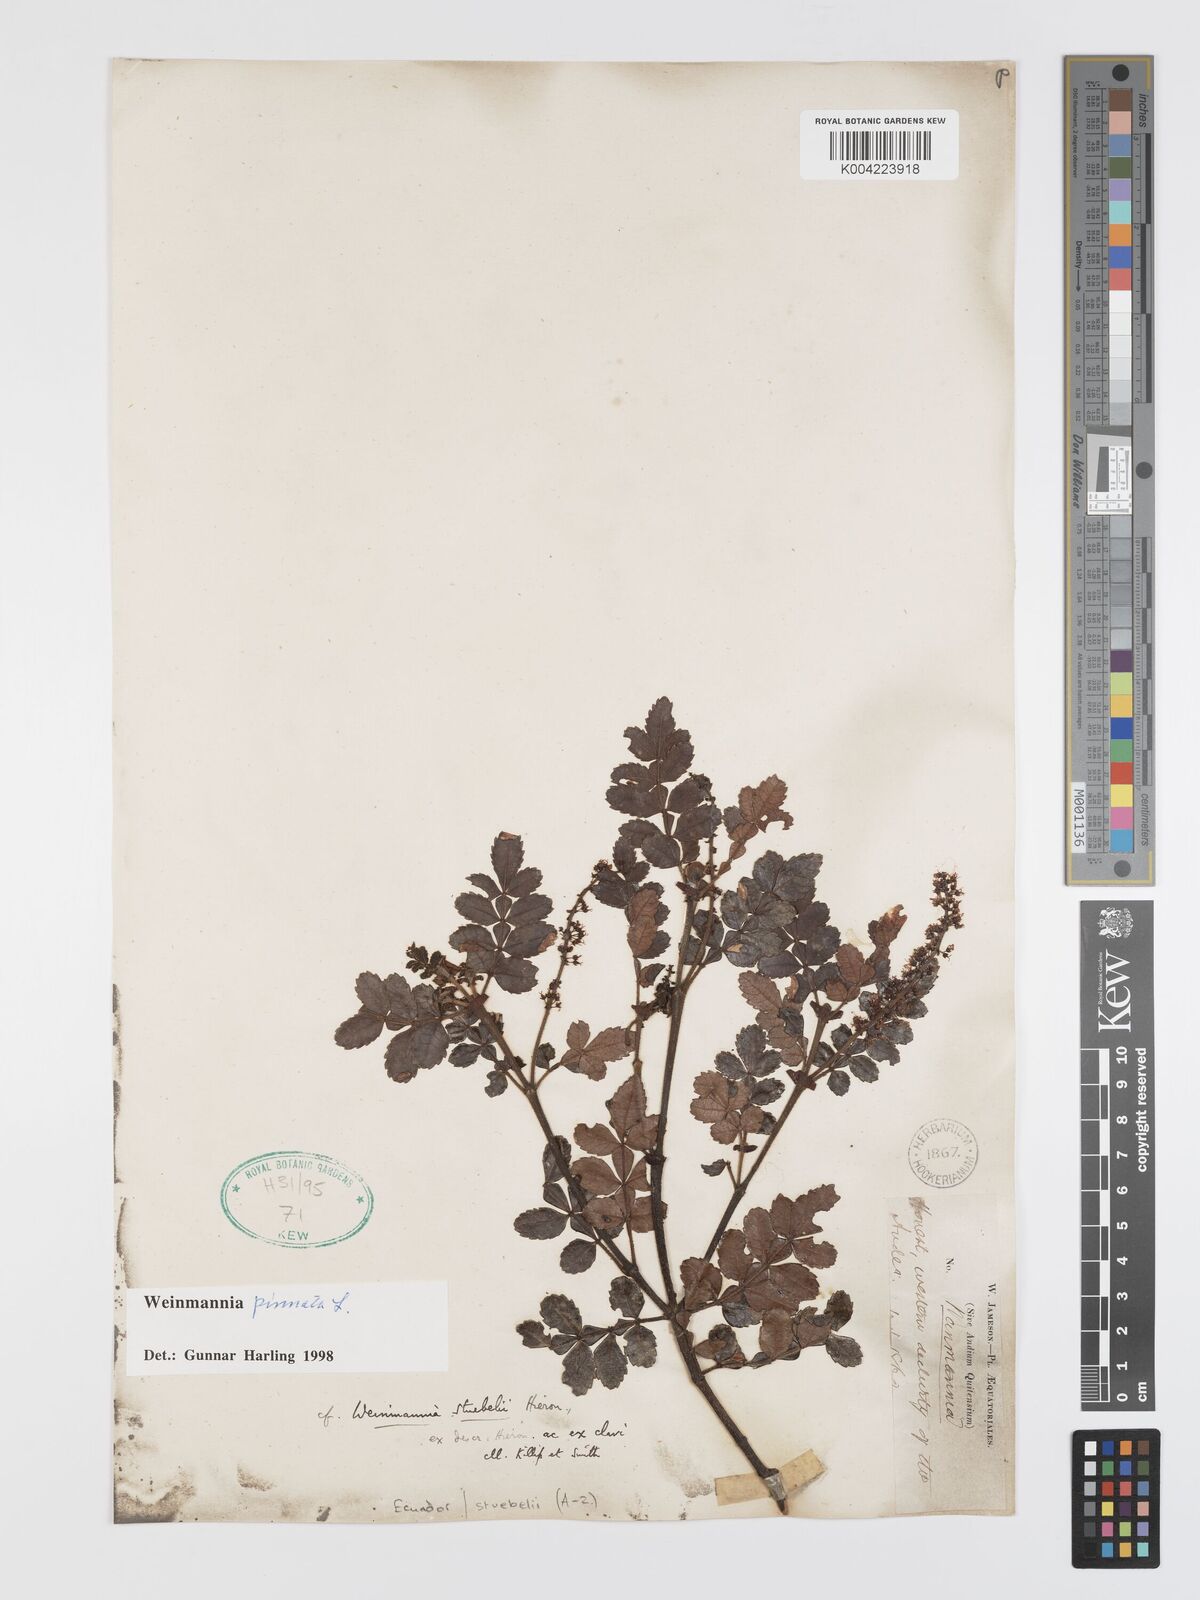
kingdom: Plantae
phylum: Tracheophyta
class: Magnoliopsida
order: Oxalidales
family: Cunoniaceae
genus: Weinmannia
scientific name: Weinmannia pinnata
